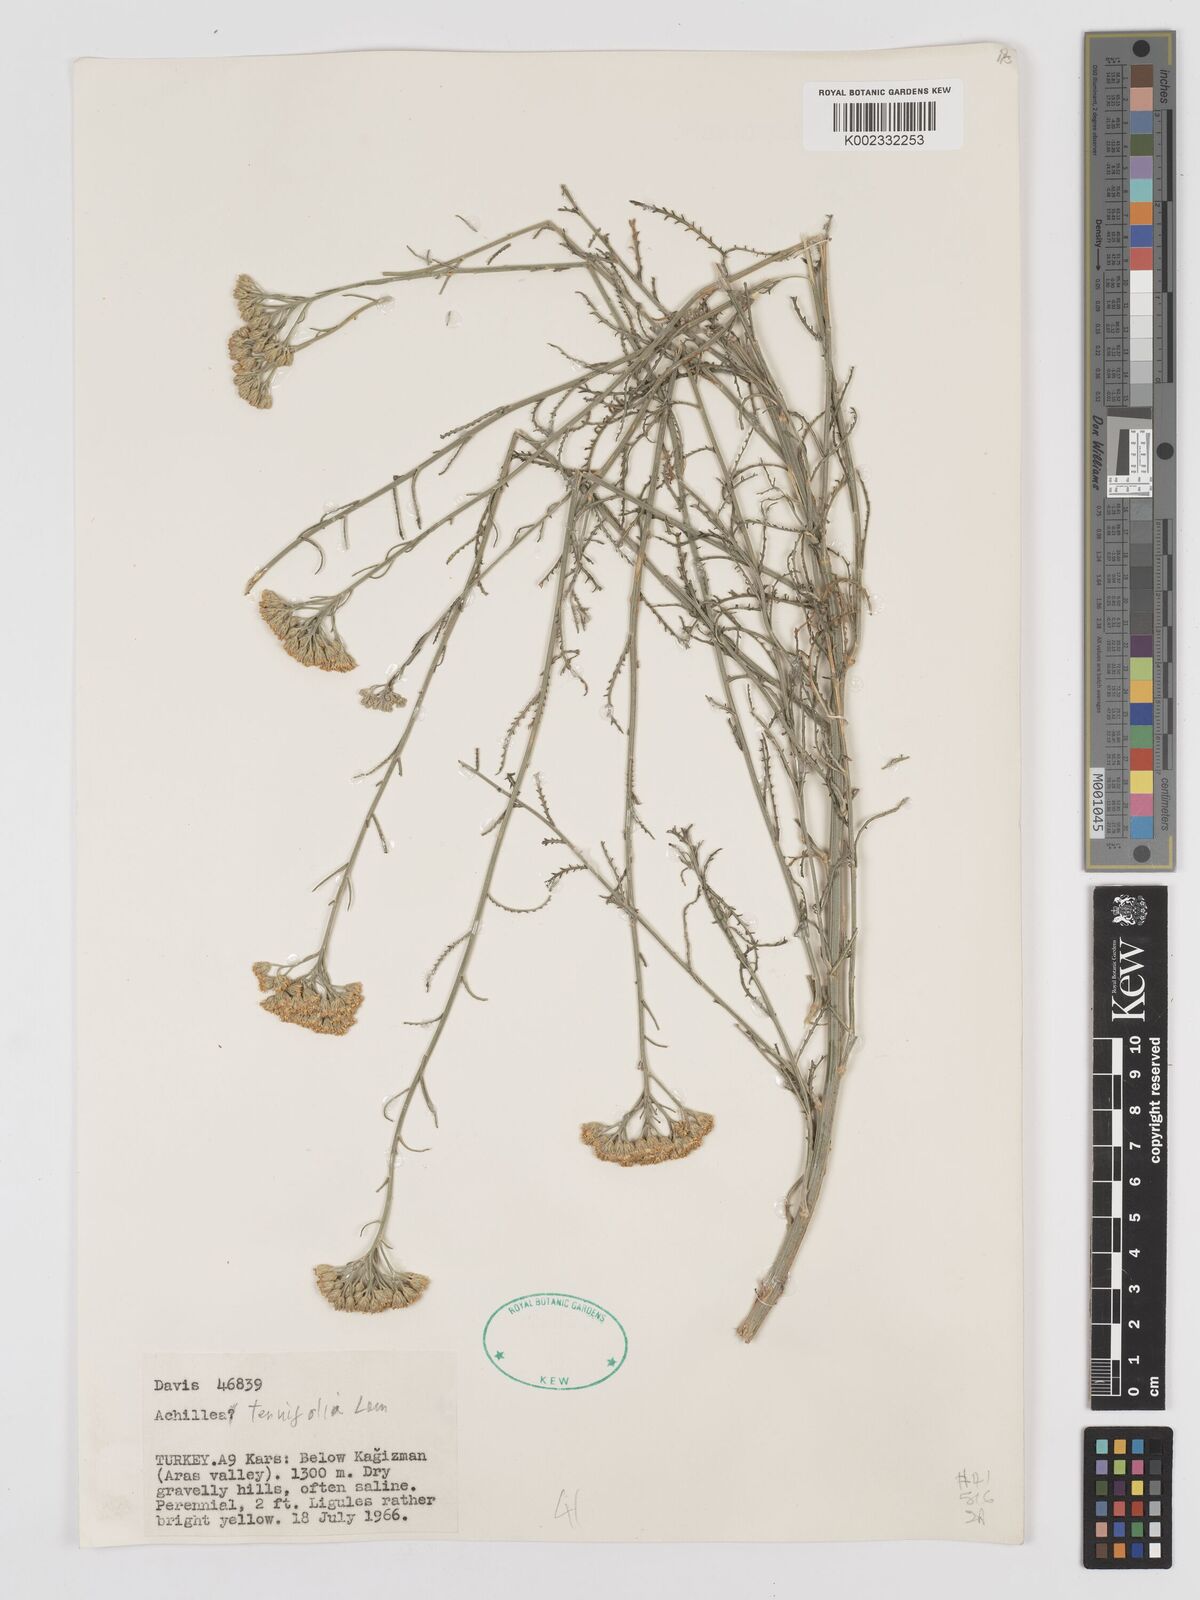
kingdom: Plantae
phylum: Tracheophyta
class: Magnoliopsida
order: Asterales
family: Asteraceae
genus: Achillea
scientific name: Achillea tenuifolia
